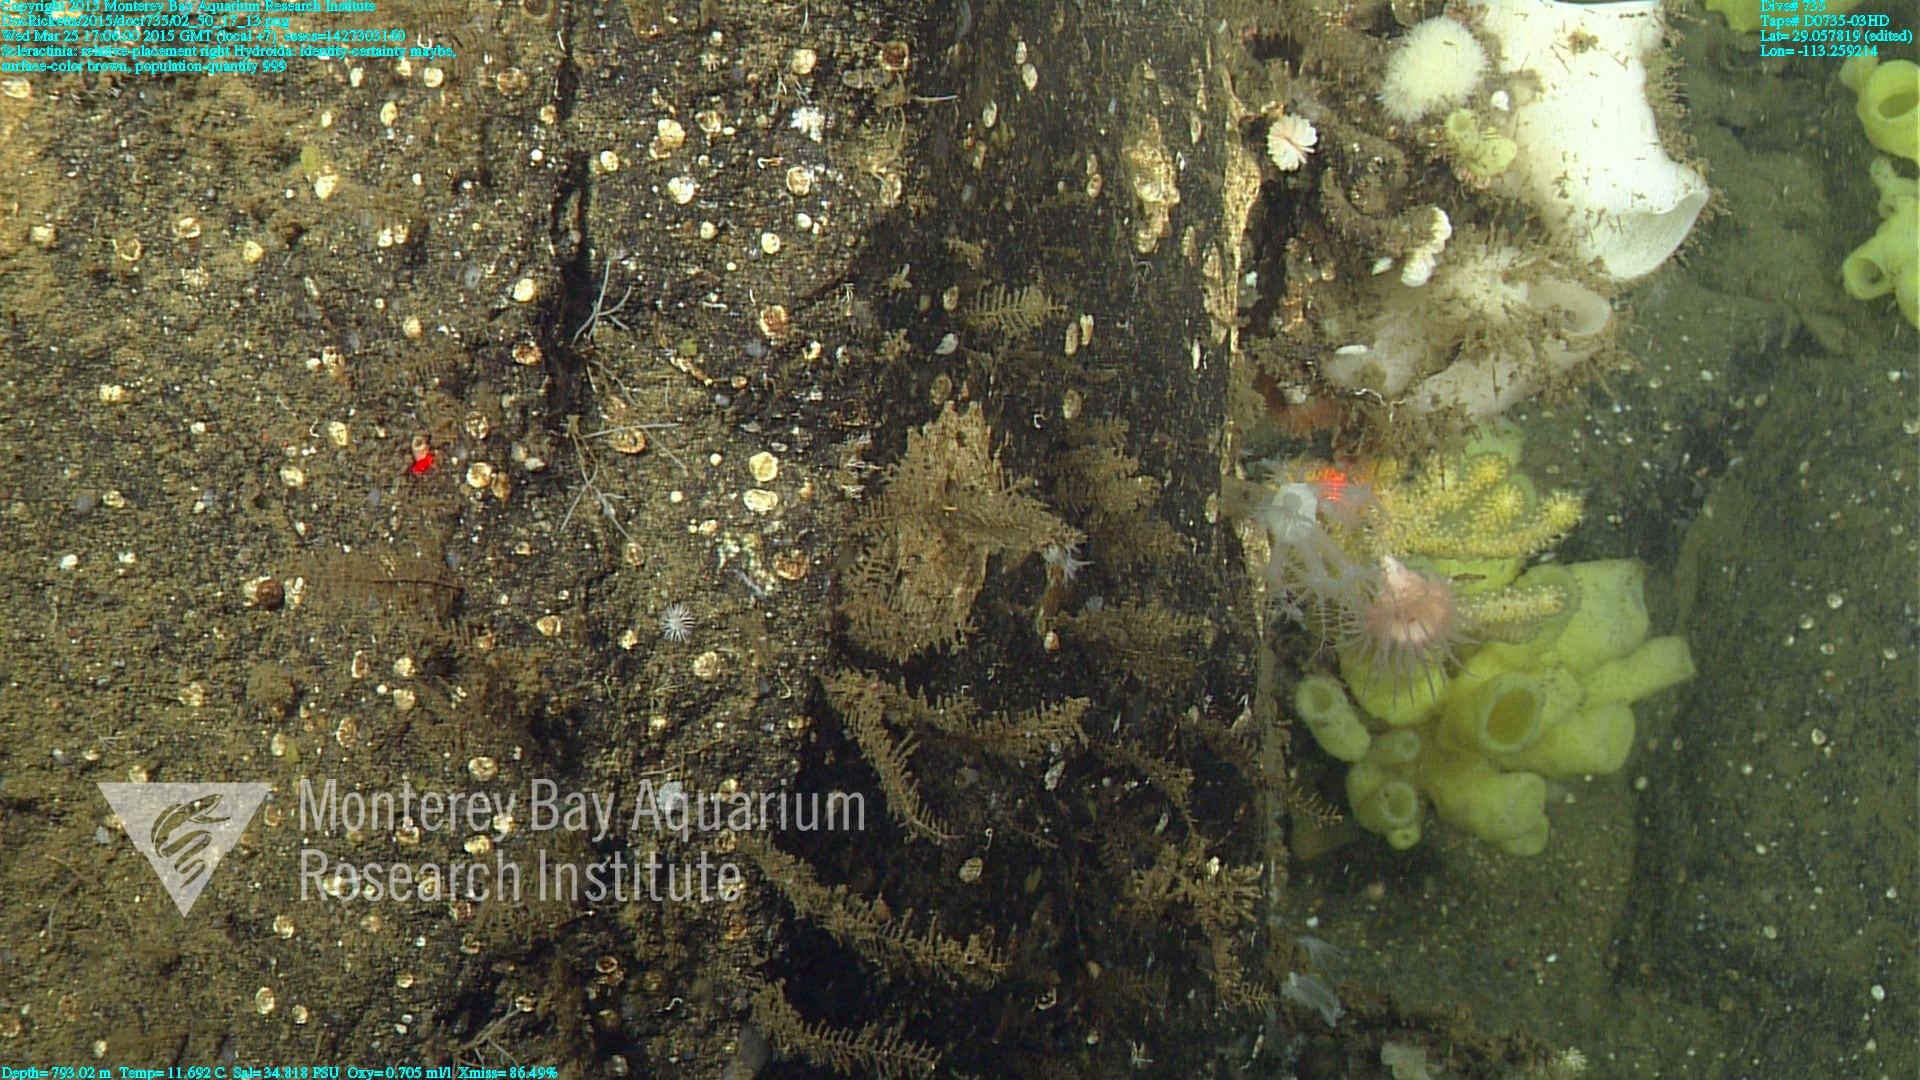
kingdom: Animalia
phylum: Cnidaria
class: Anthozoa
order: Scleractinia
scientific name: Scleractinia
